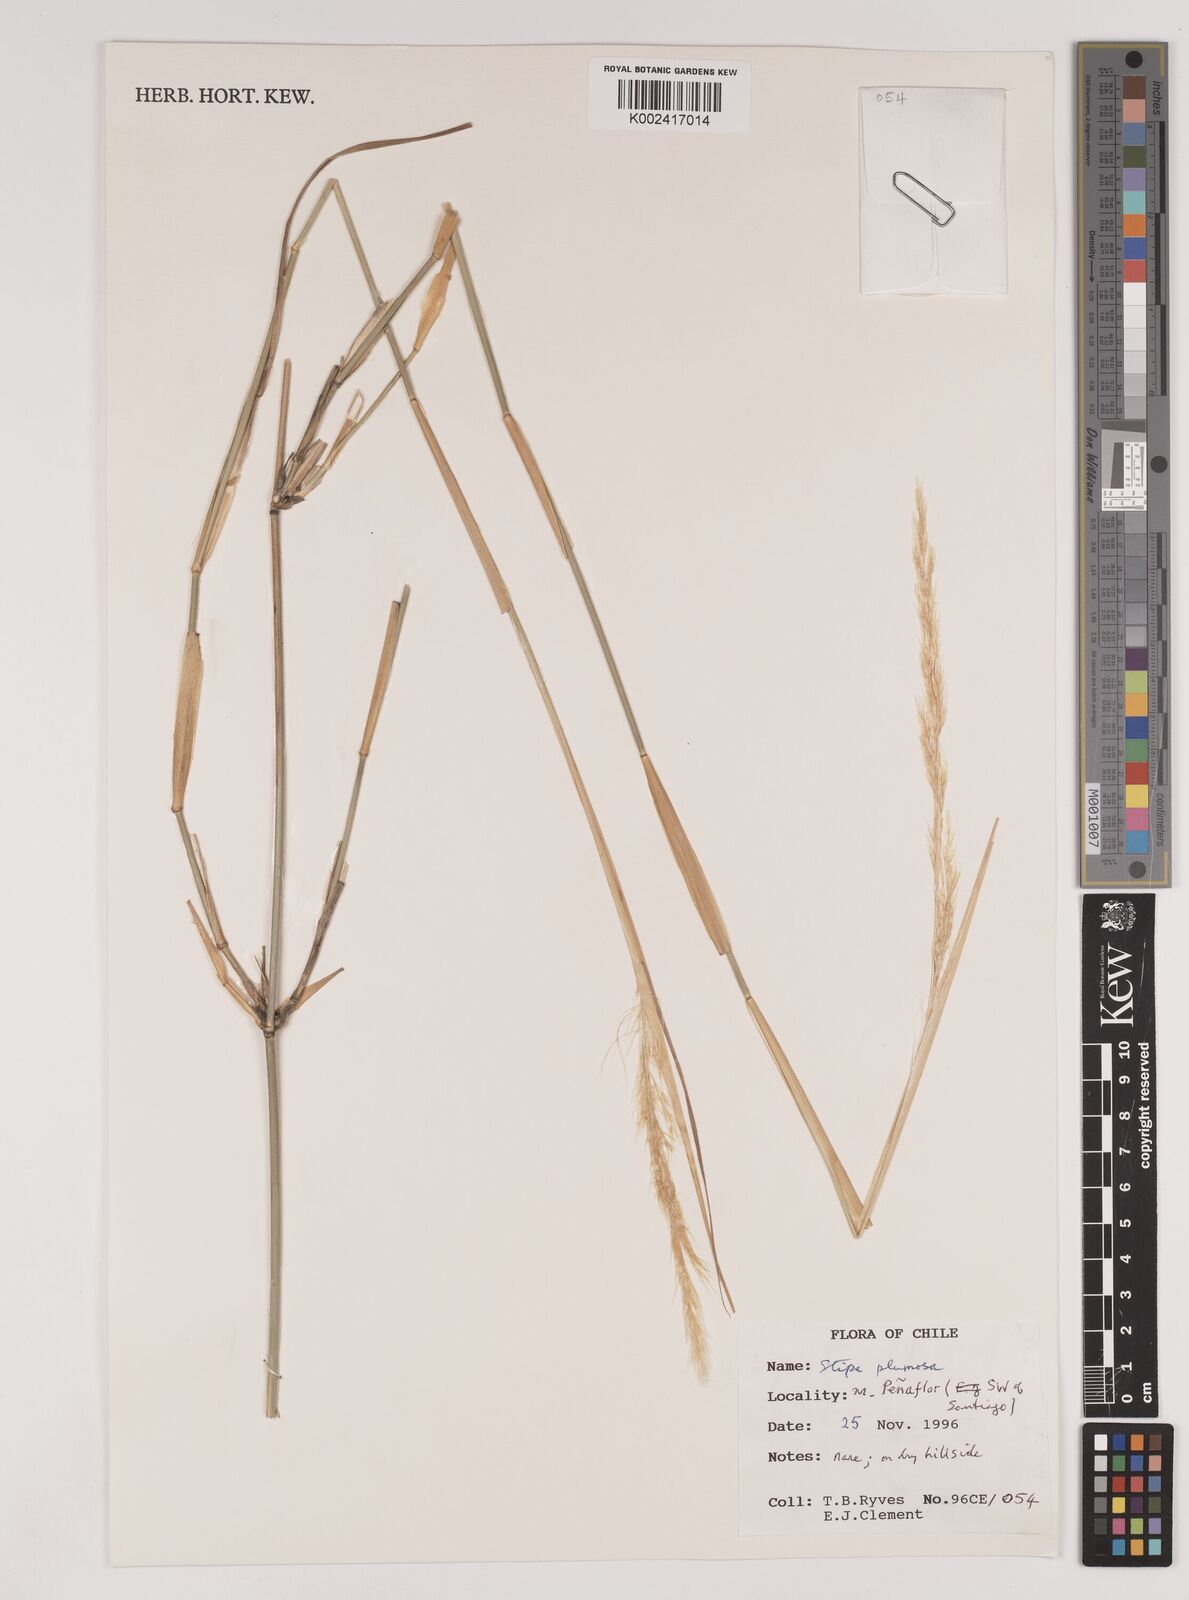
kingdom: Plantae
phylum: Tracheophyta
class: Liliopsida
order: Poales
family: Poaceae
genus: Stipa
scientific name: Stipa plumosa
